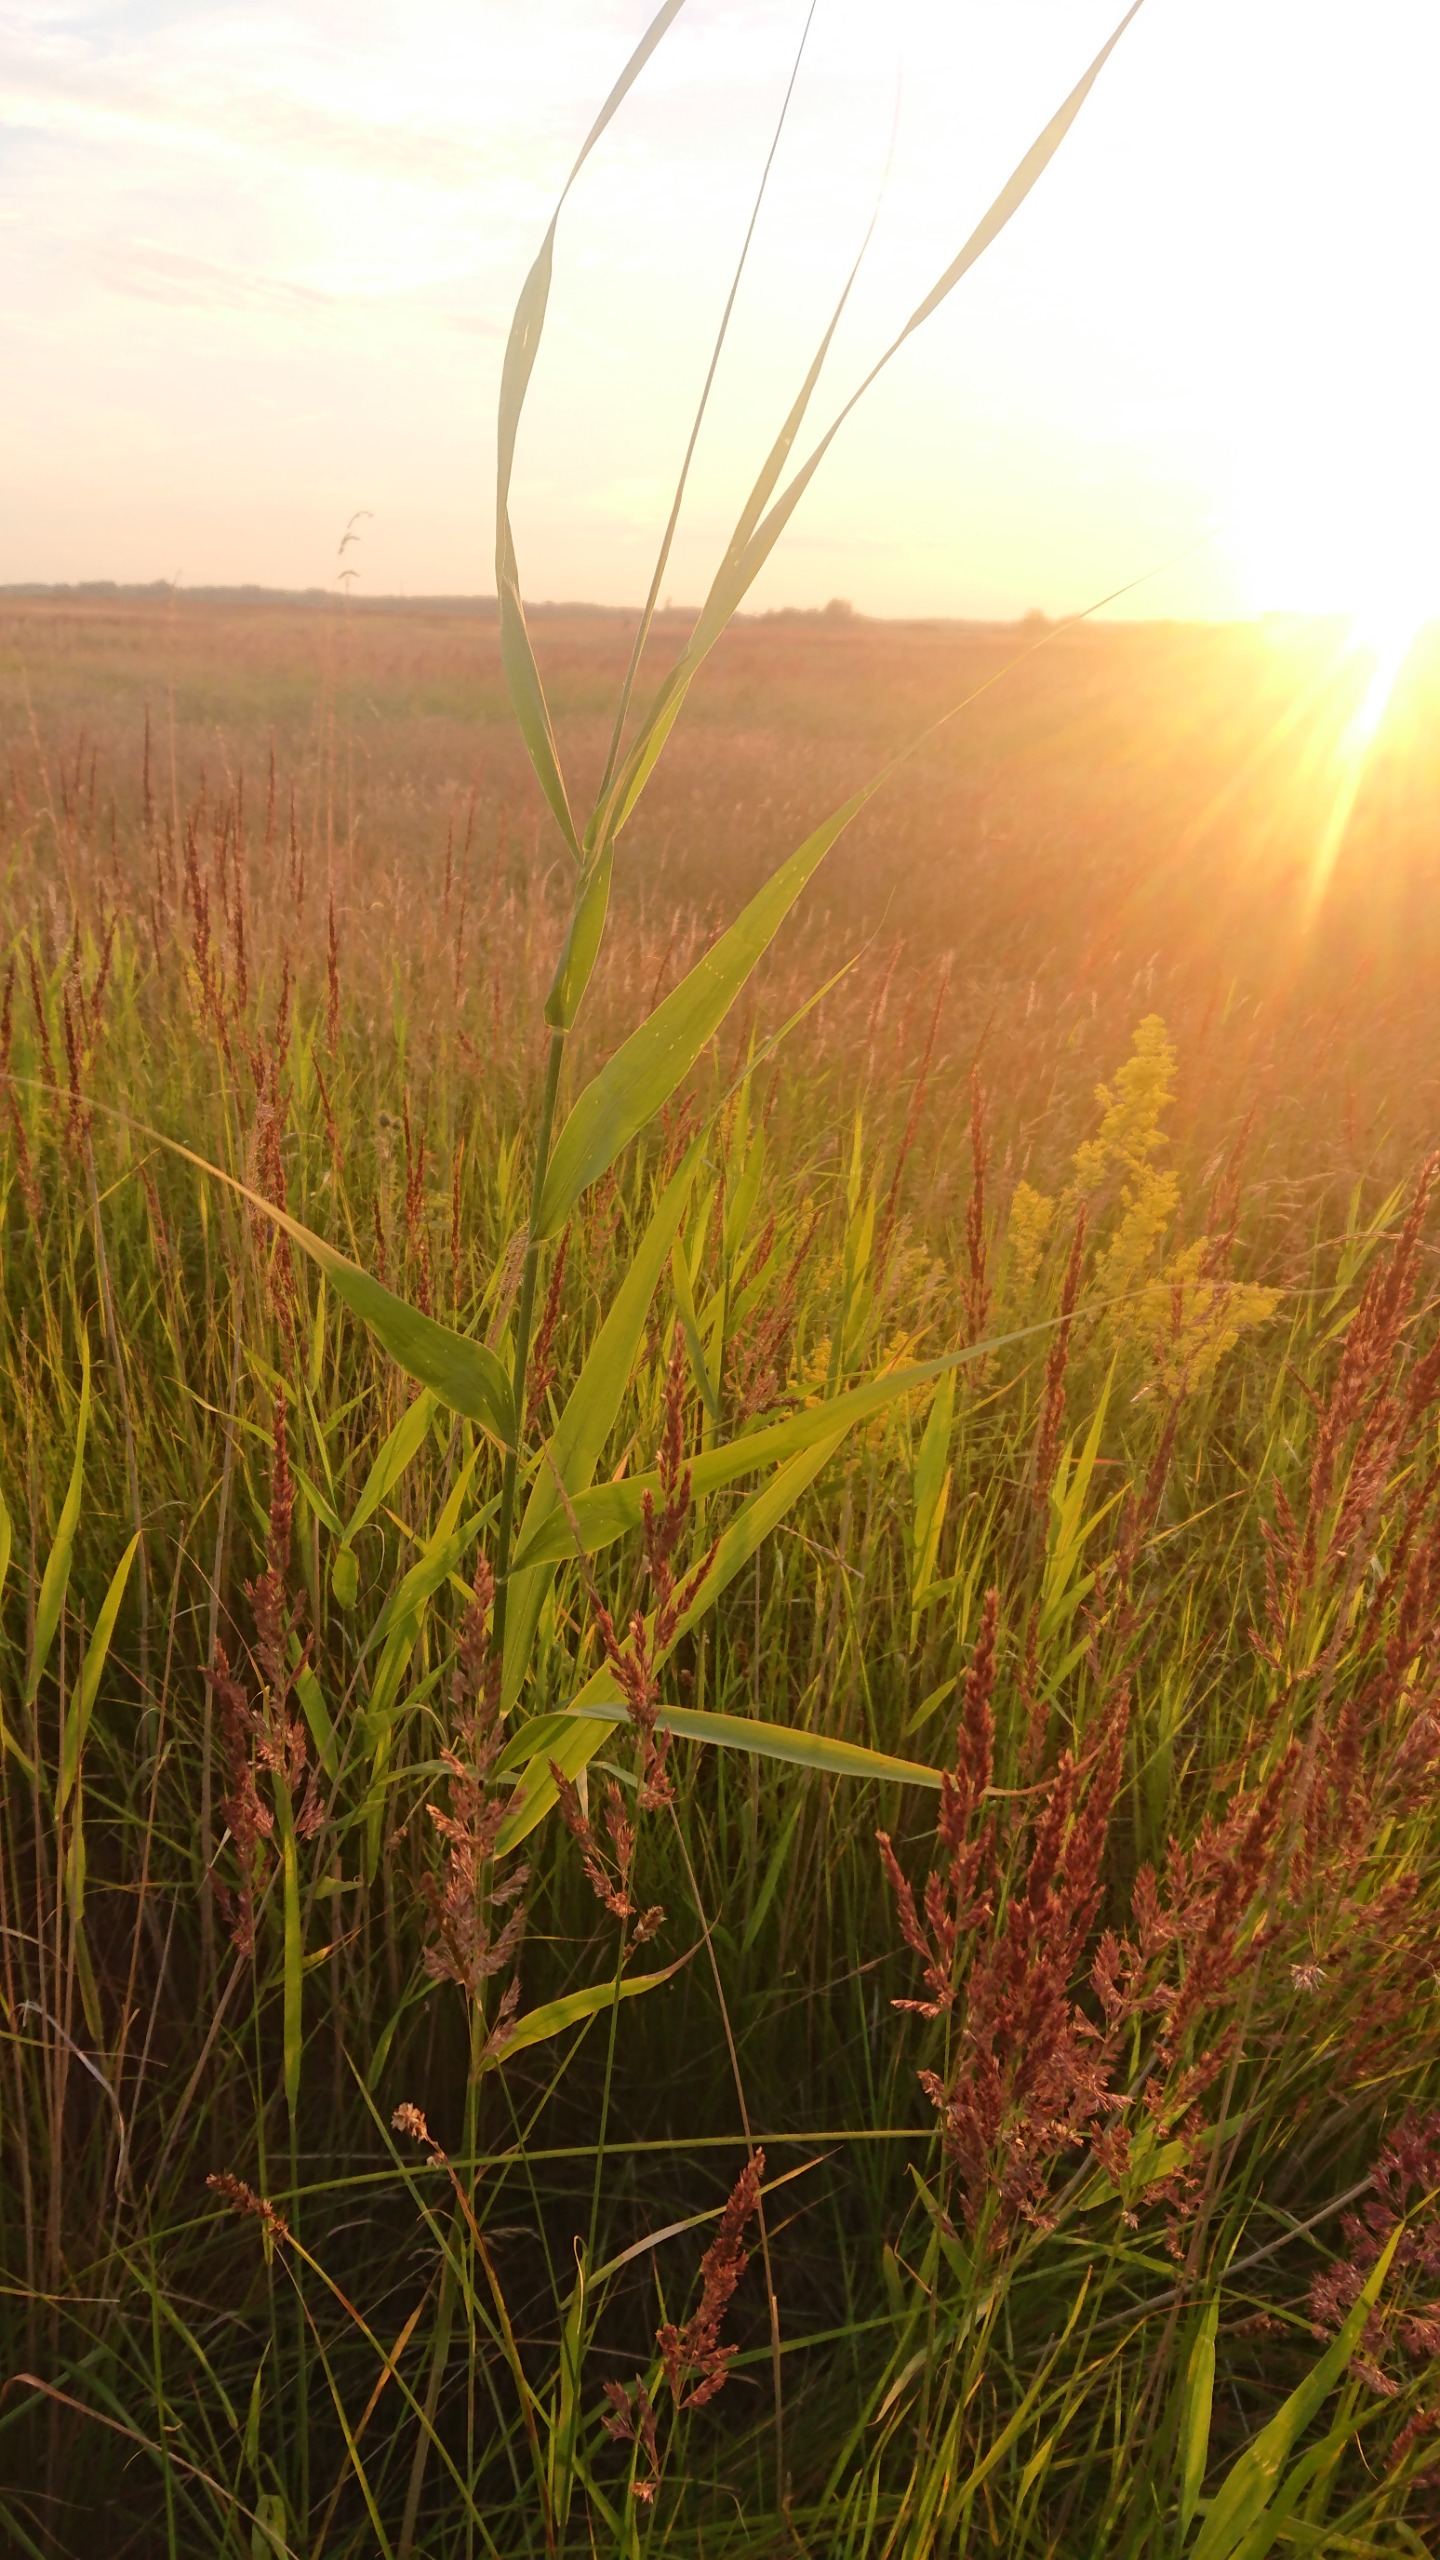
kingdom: Plantae
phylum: Tracheophyta
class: Liliopsida
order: Poales
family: Poaceae
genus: Phragmites
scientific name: Phragmites australis
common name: Tagrør
